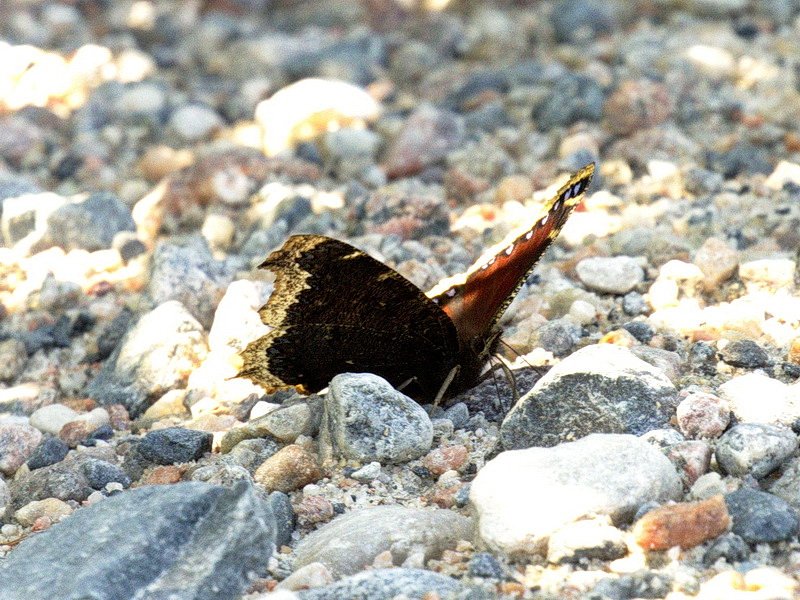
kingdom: Animalia
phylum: Arthropoda
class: Insecta
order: Lepidoptera
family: Nymphalidae
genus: Nymphalis
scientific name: Nymphalis antiopa
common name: Mourning Cloak
